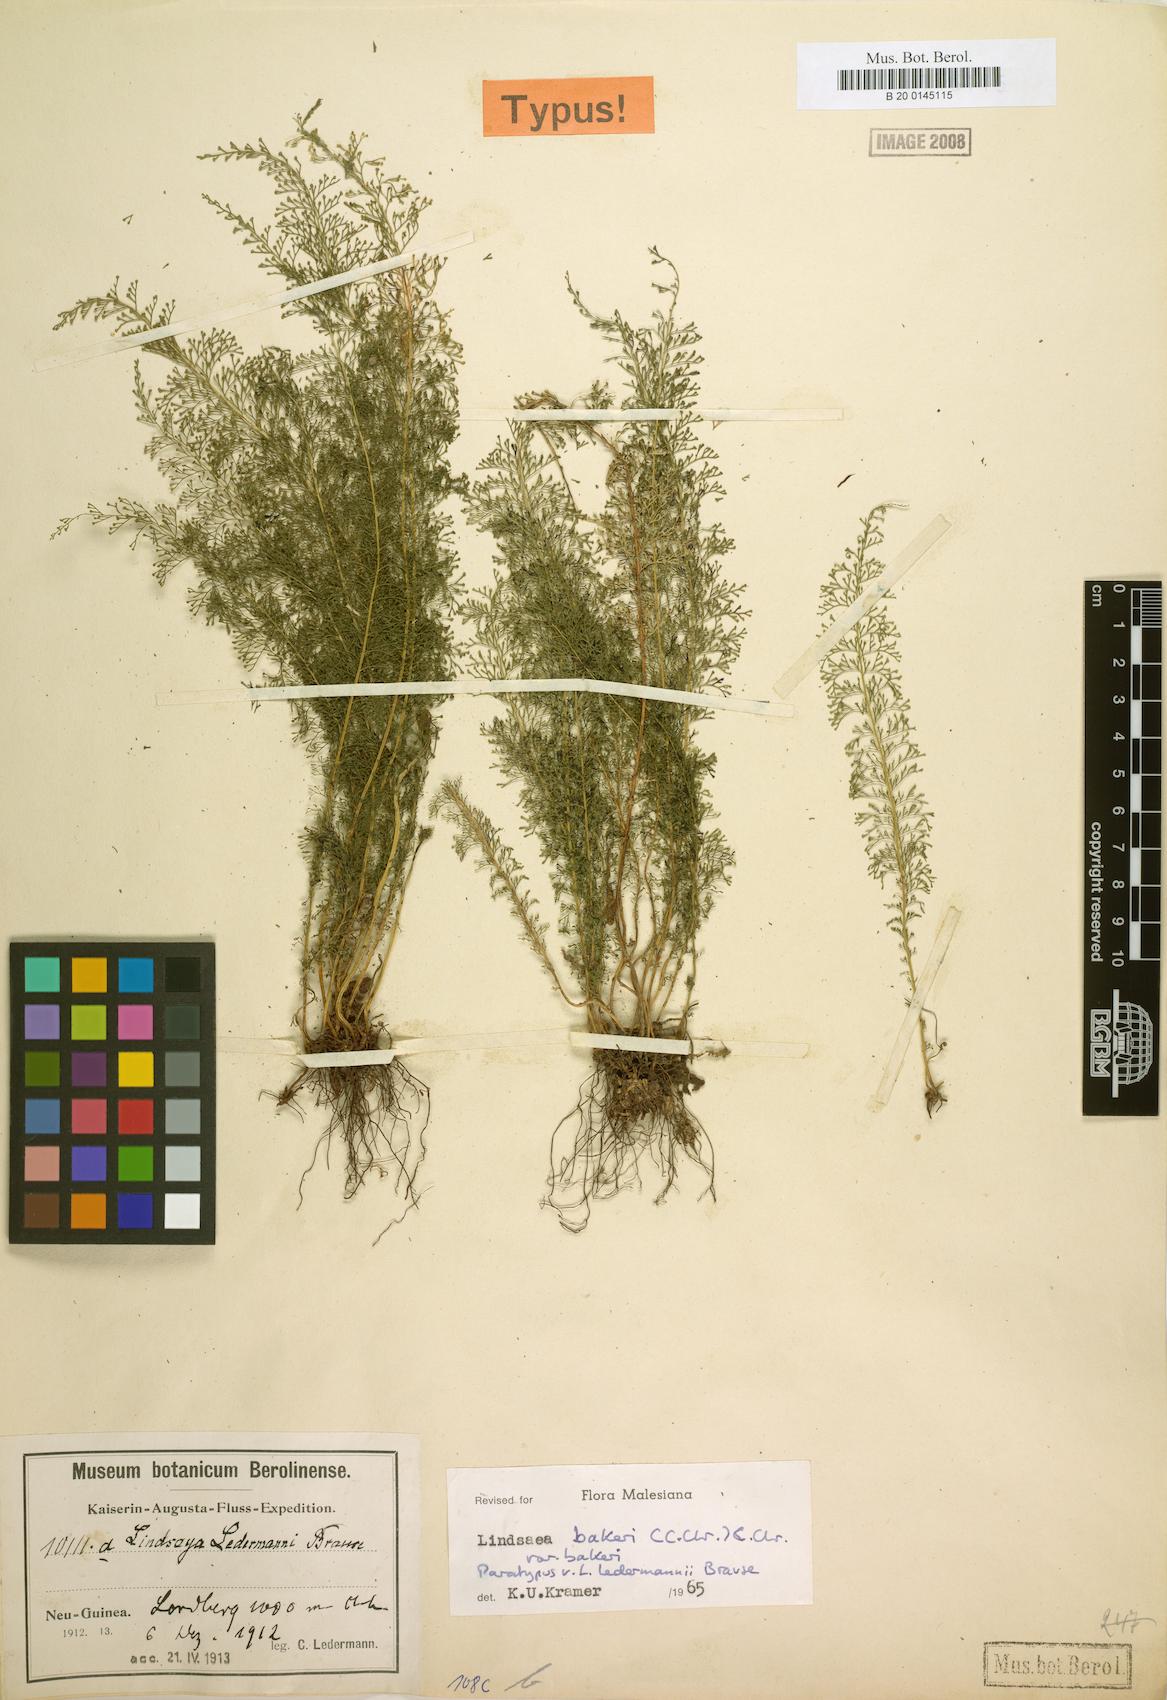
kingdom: Plantae
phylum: Tracheophyta
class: Polypodiopsida
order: Polypodiales
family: Lindsaeaceae
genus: Lindsaea
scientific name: Lindsaea bakeri
